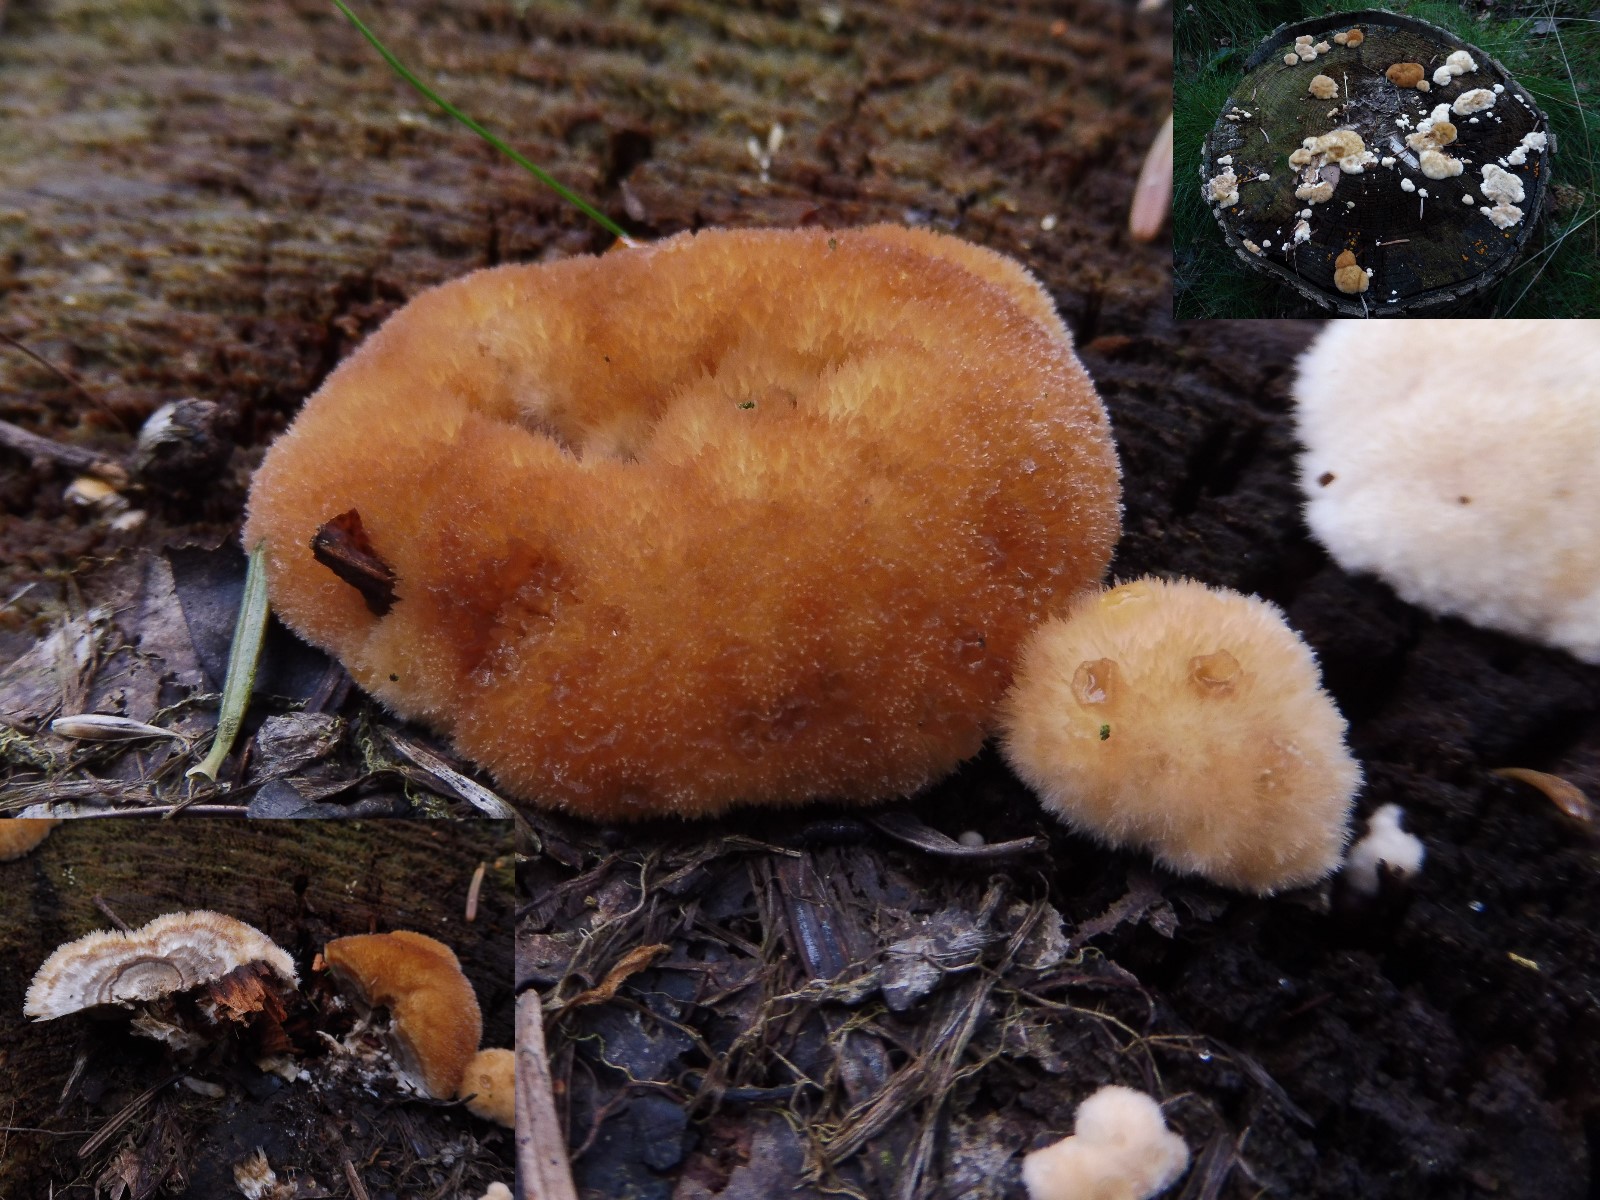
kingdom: Fungi
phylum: Basidiomycota
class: Agaricomycetes
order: Polyporales
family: Dacryobolaceae
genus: Postia
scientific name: Postia ptychogaster
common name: støvende kødporesvamp
